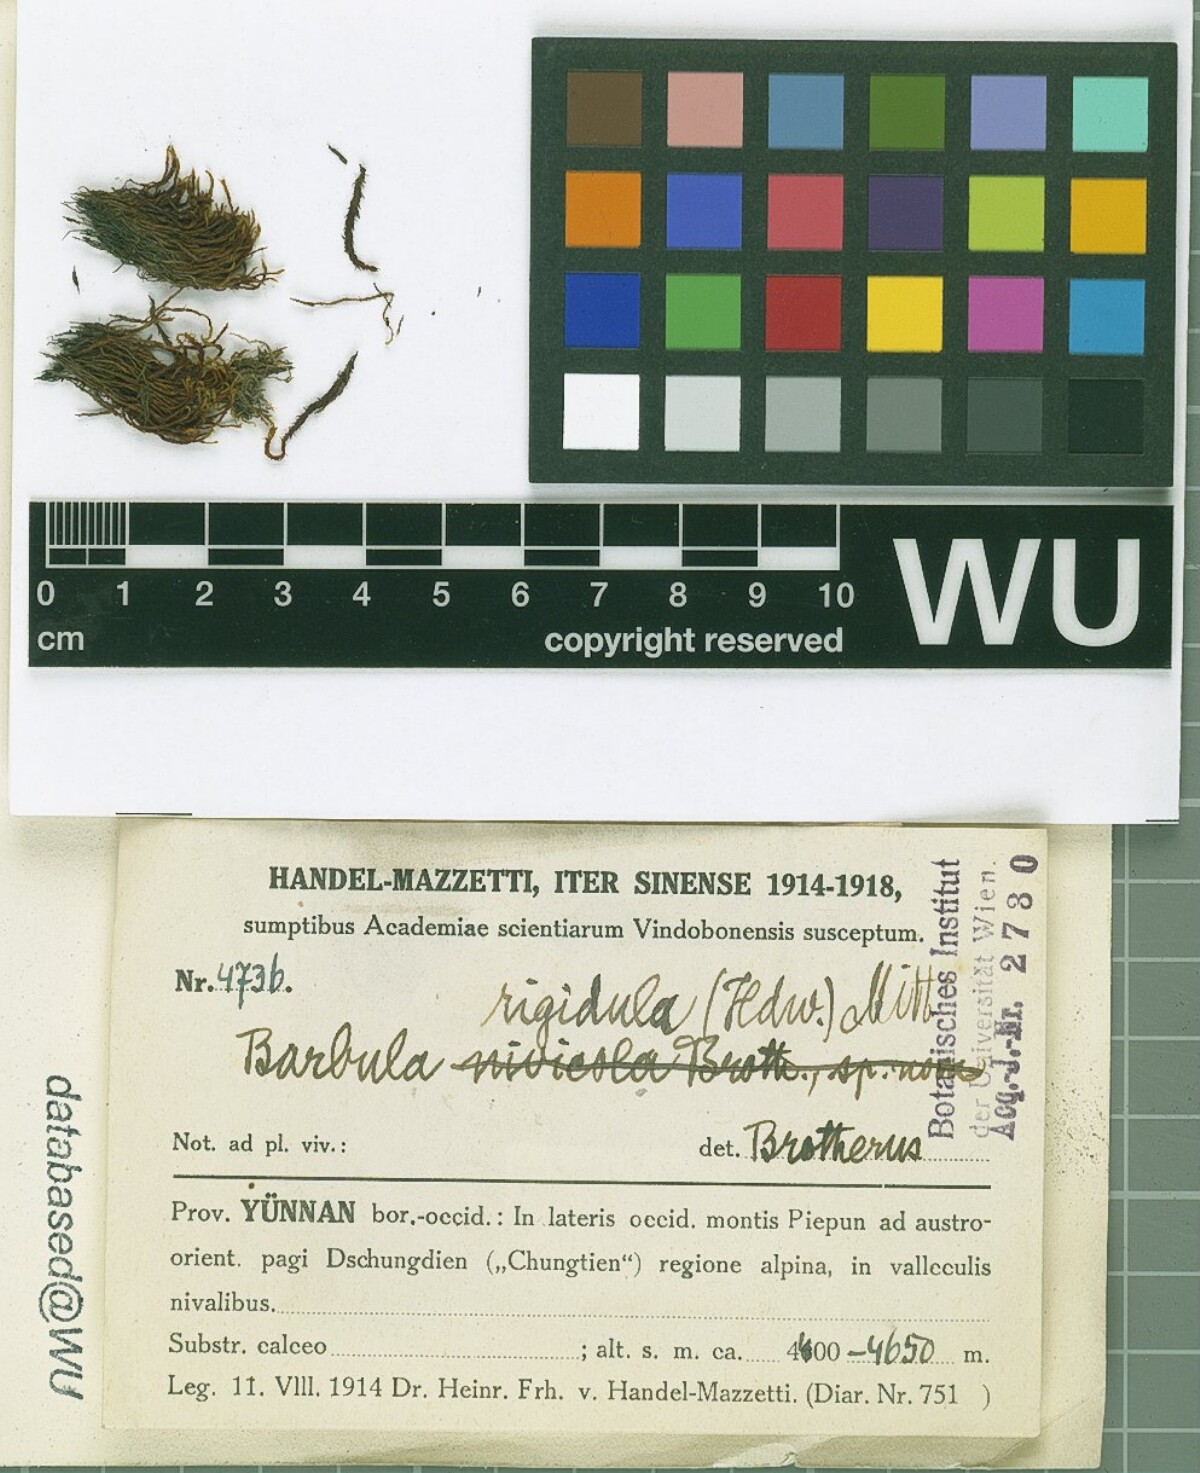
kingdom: Plantae
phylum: Bryophyta
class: Bryopsida
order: Pottiales
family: Pottiaceae
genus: Didymodon
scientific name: Didymodon rigidulus
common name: Rigid beard-moss
